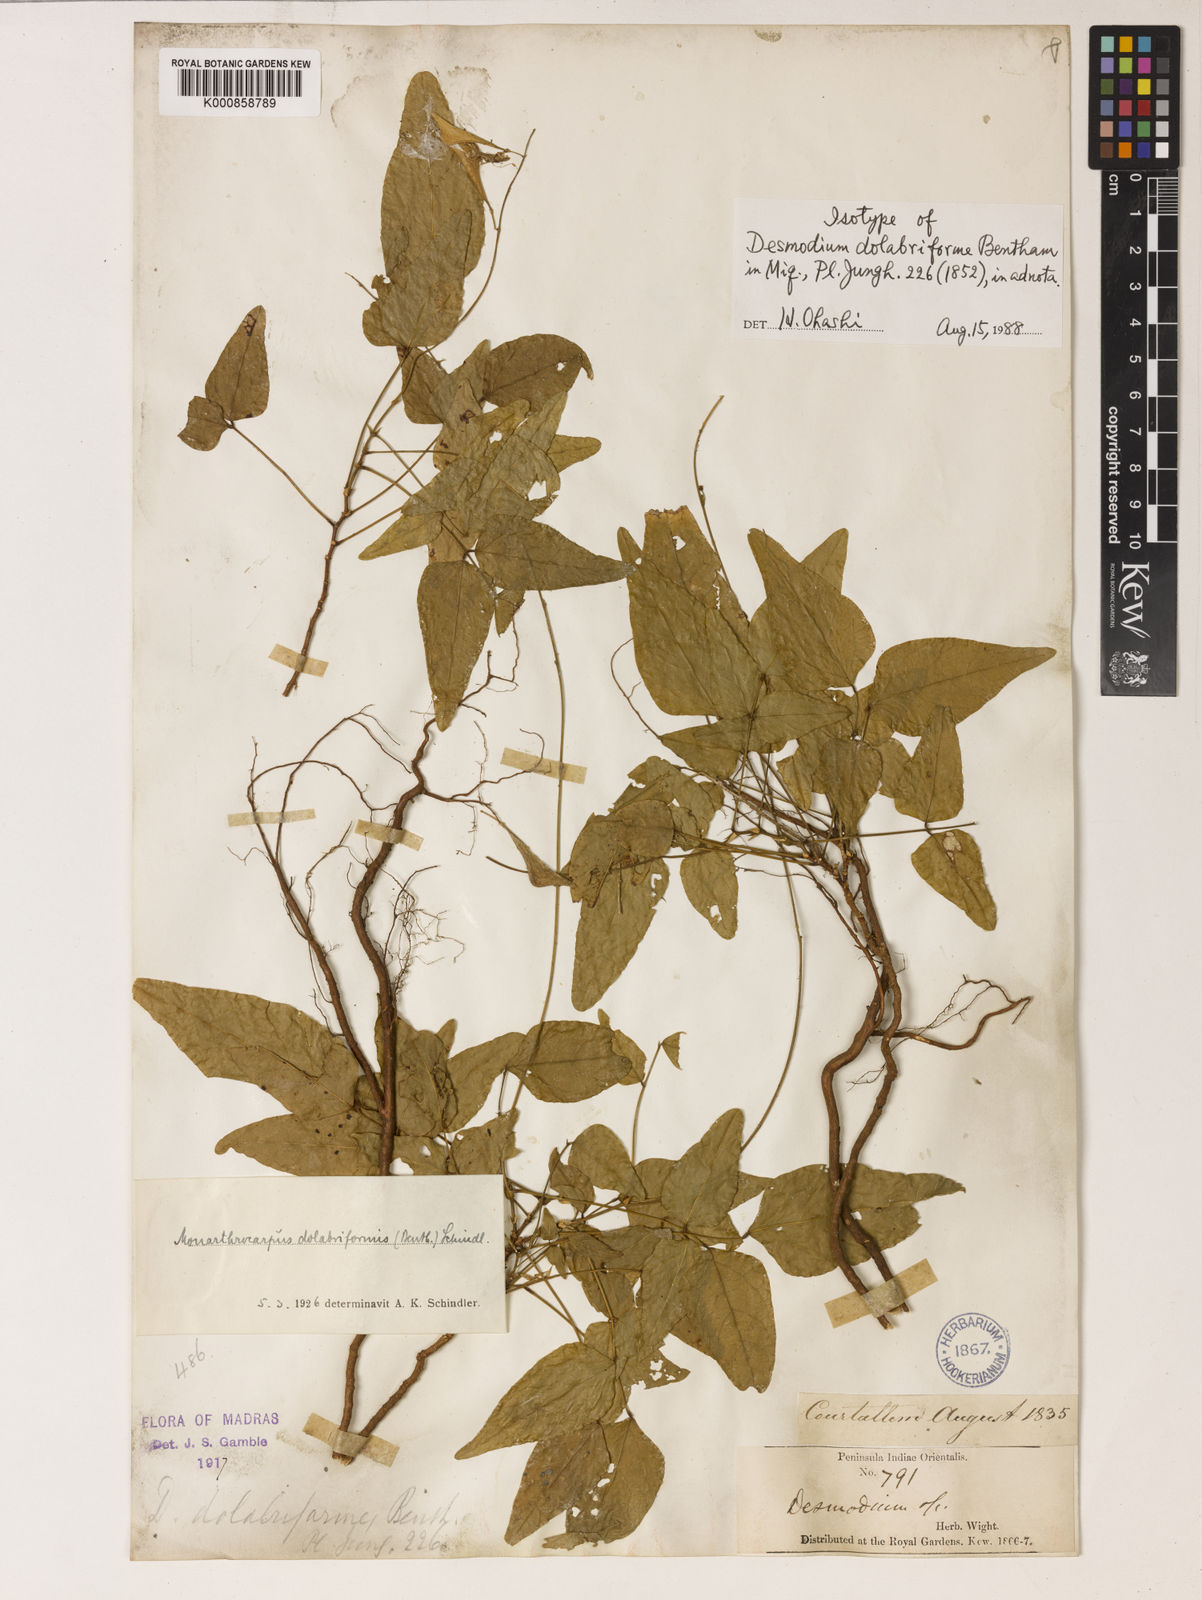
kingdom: Plantae
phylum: Tracheophyta
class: Magnoliopsida
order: Fabales
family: Fabaceae
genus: Monarthrocarpus
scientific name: Monarthrocarpus dolabriformis
